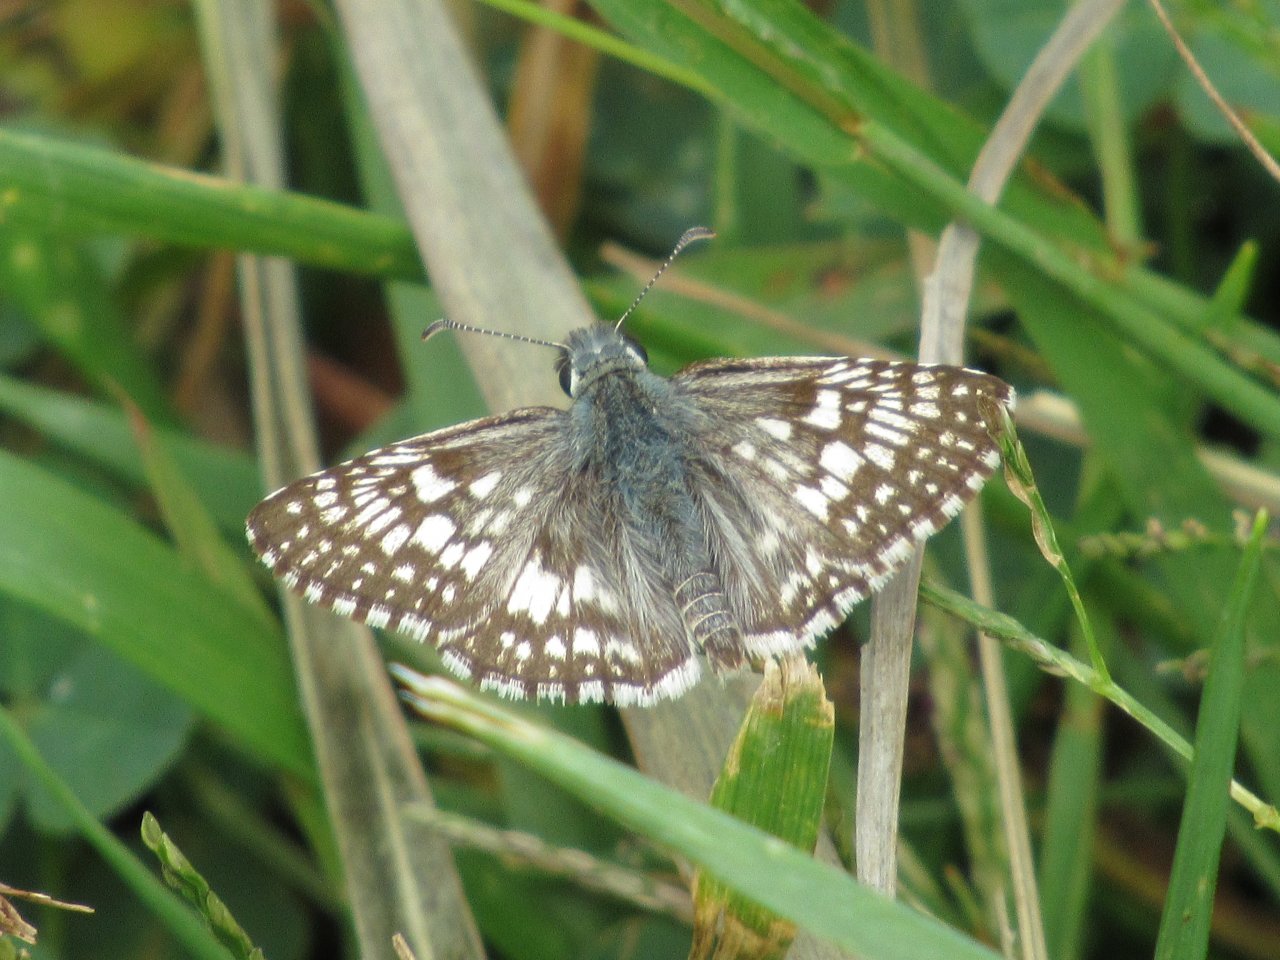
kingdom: Animalia
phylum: Arthropoda
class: Insecta
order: Lepidoptera
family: Hesperiidae
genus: Pyrgus
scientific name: Pyrgus communis
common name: Common Checkered-Skipper
